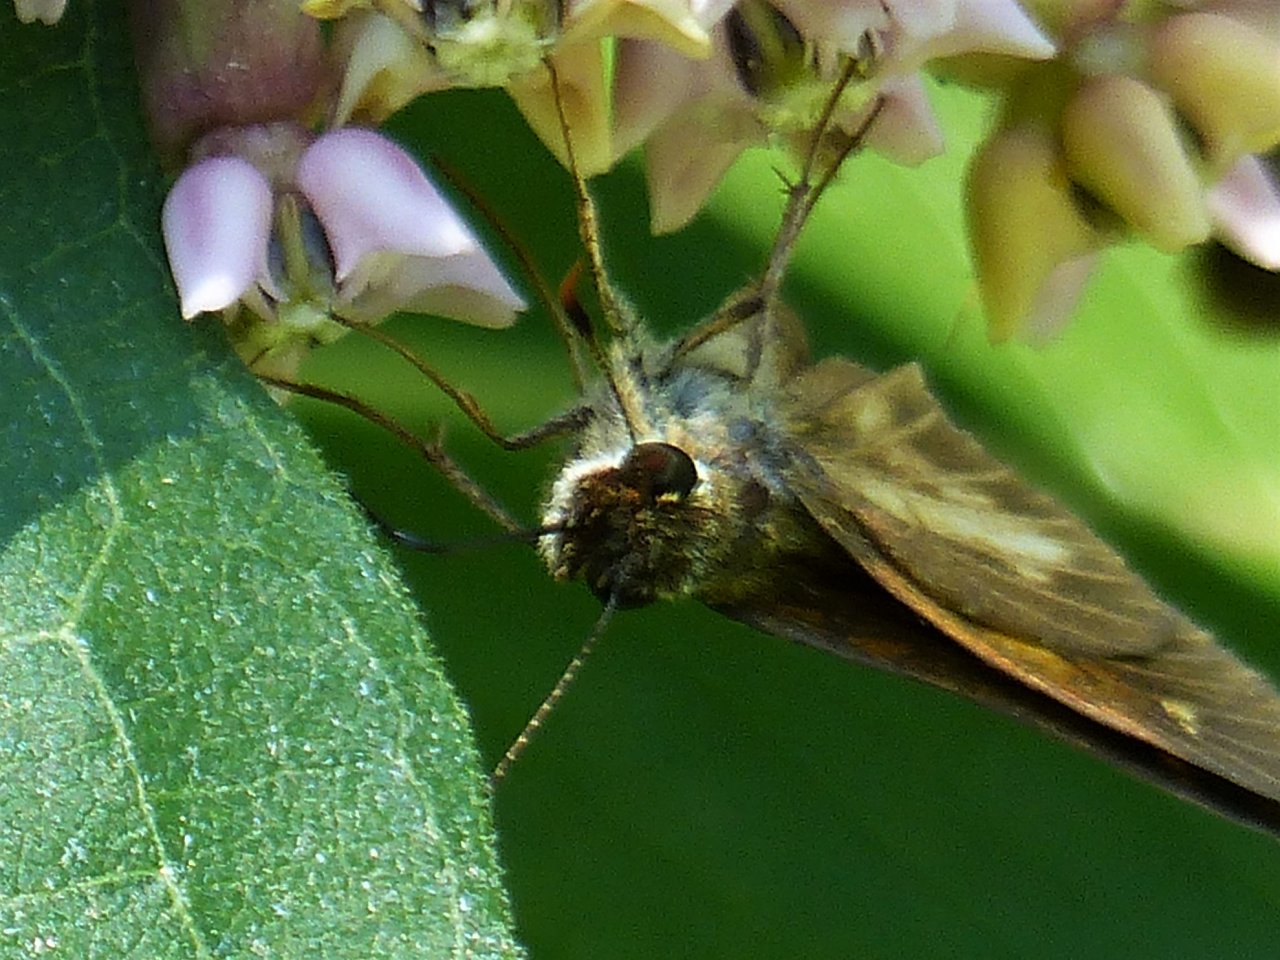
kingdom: Animalia
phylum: Arthropoda
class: Insecta
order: Lepidoptera
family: Hesperiidae
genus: Poanes
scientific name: Poanes viator
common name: Broad-winged Skipper
